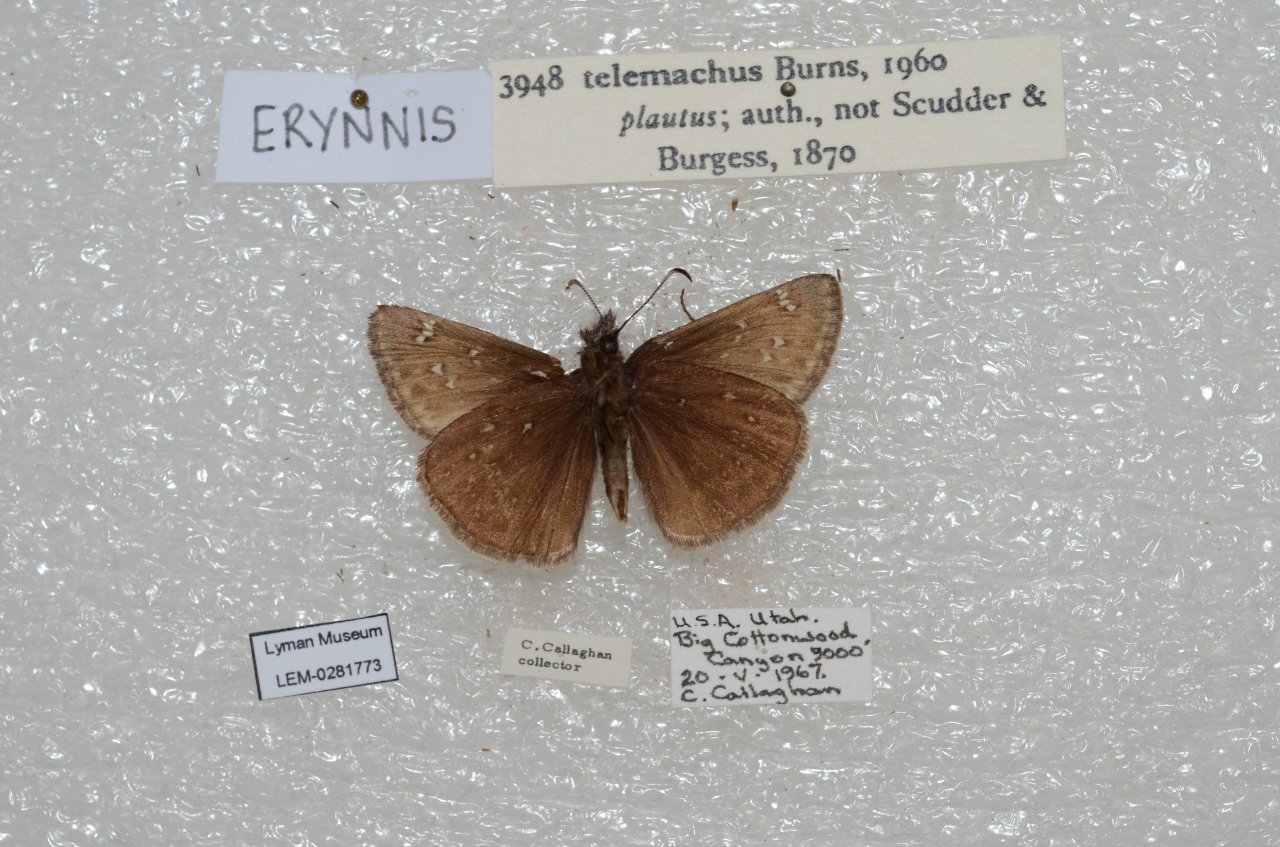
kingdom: Animalia
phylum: Arthropoda
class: Insecta
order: Lepidoptera
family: Hesperiidae
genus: Erynnis
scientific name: Erynnis telemachus
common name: Rocky Mountain Duskywing
